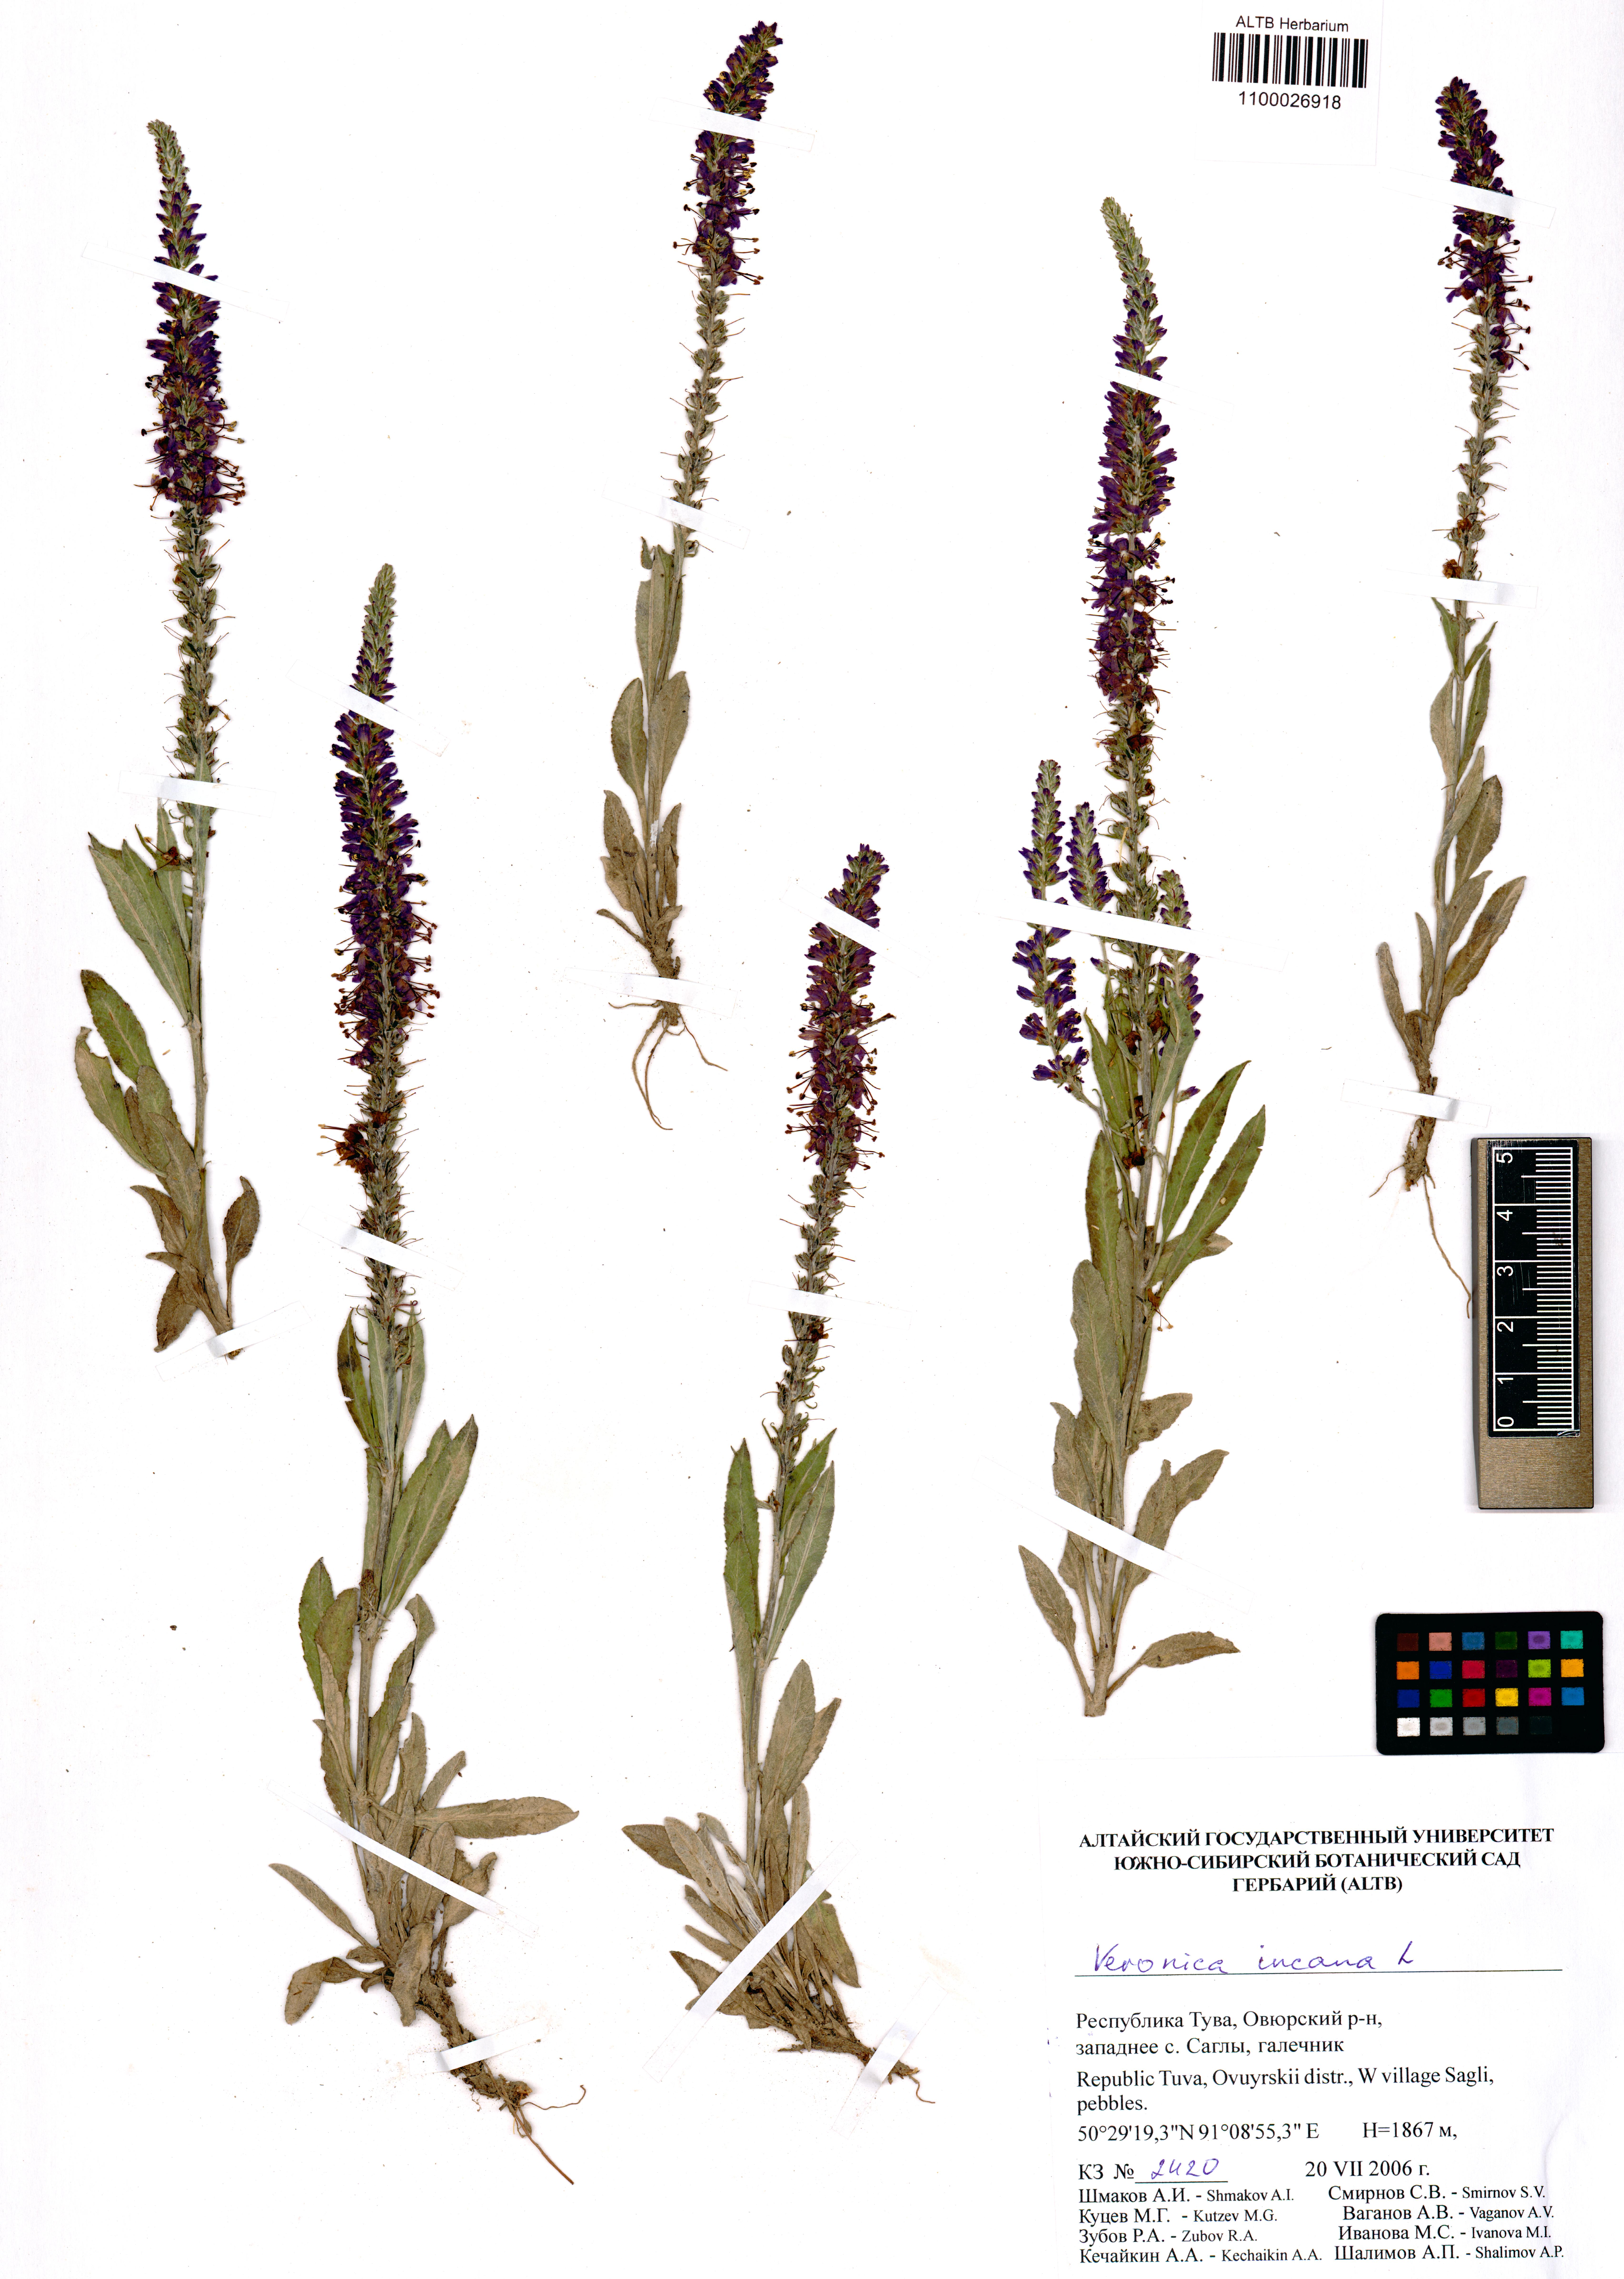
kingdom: Plantae
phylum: Tracheophyta
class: Magnoliopsida
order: Lamiales
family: Plantaginaceae
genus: Veronica
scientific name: Veronica incana
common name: Silver speedwell
